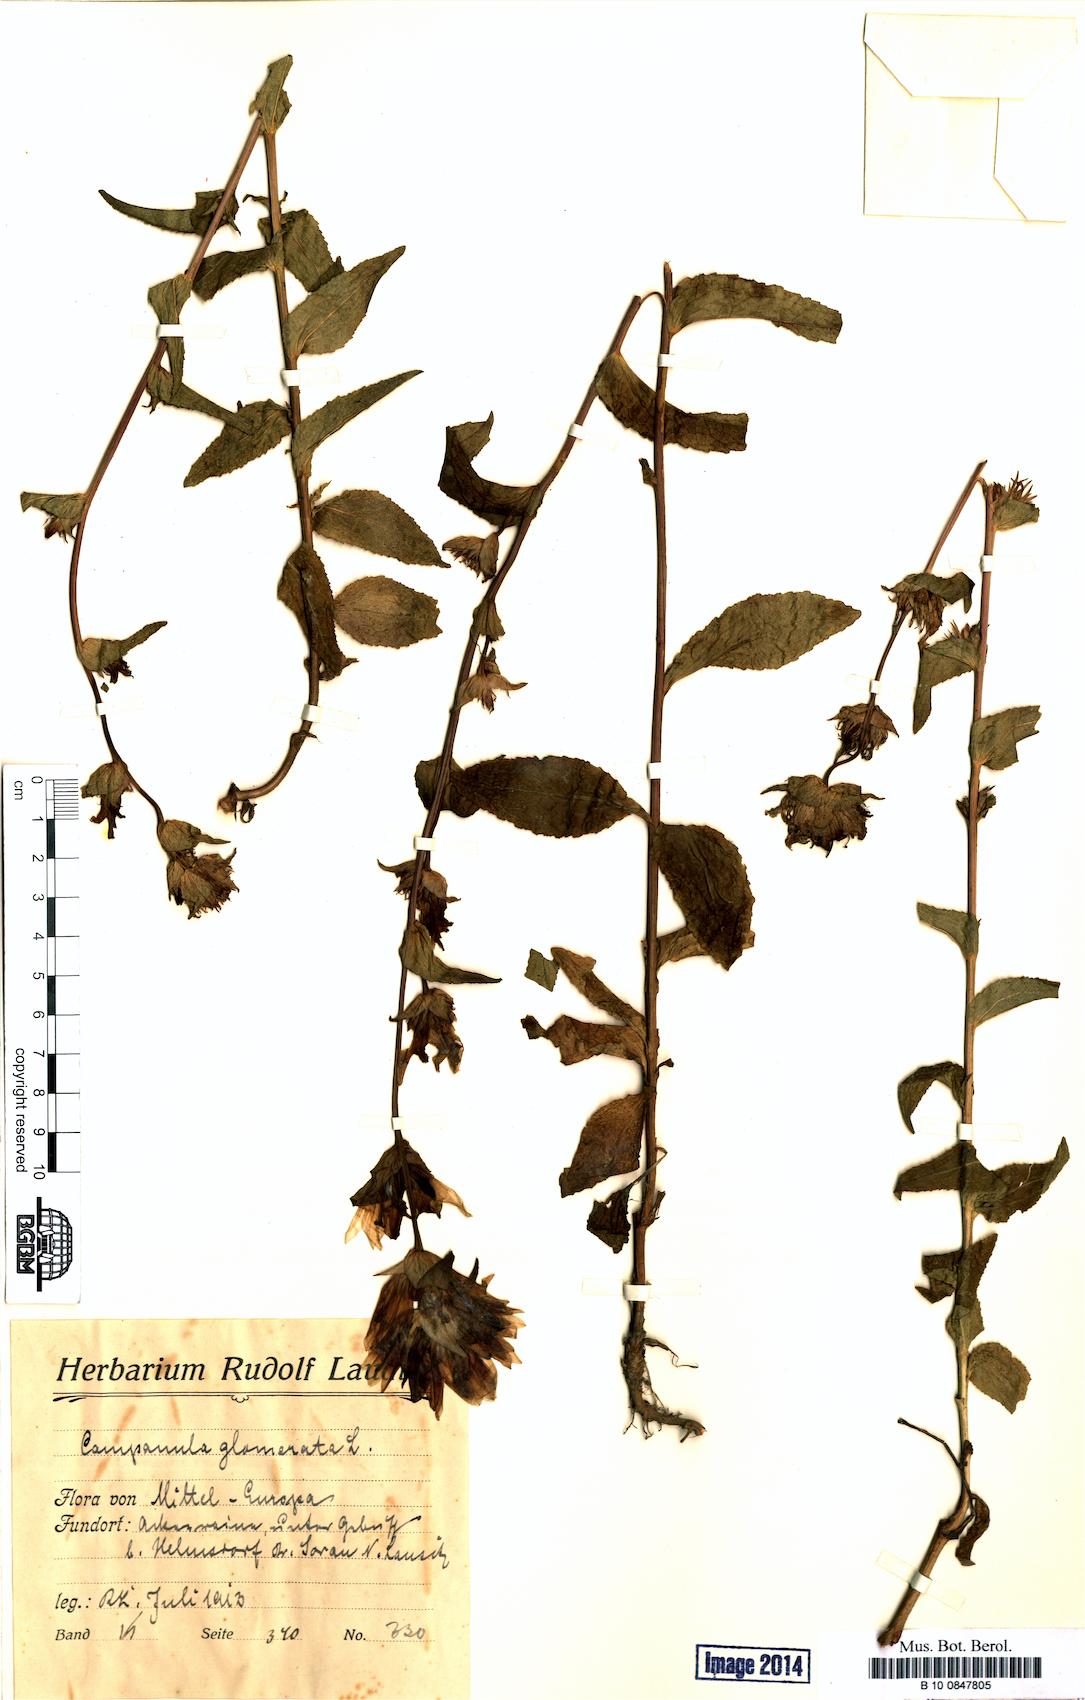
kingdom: Plantae
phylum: Tracheophyta
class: Magnoliopsida
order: Asterales
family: Campanulaceae
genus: Campanula
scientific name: Campanula glomerata
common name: Clustered bellflower
